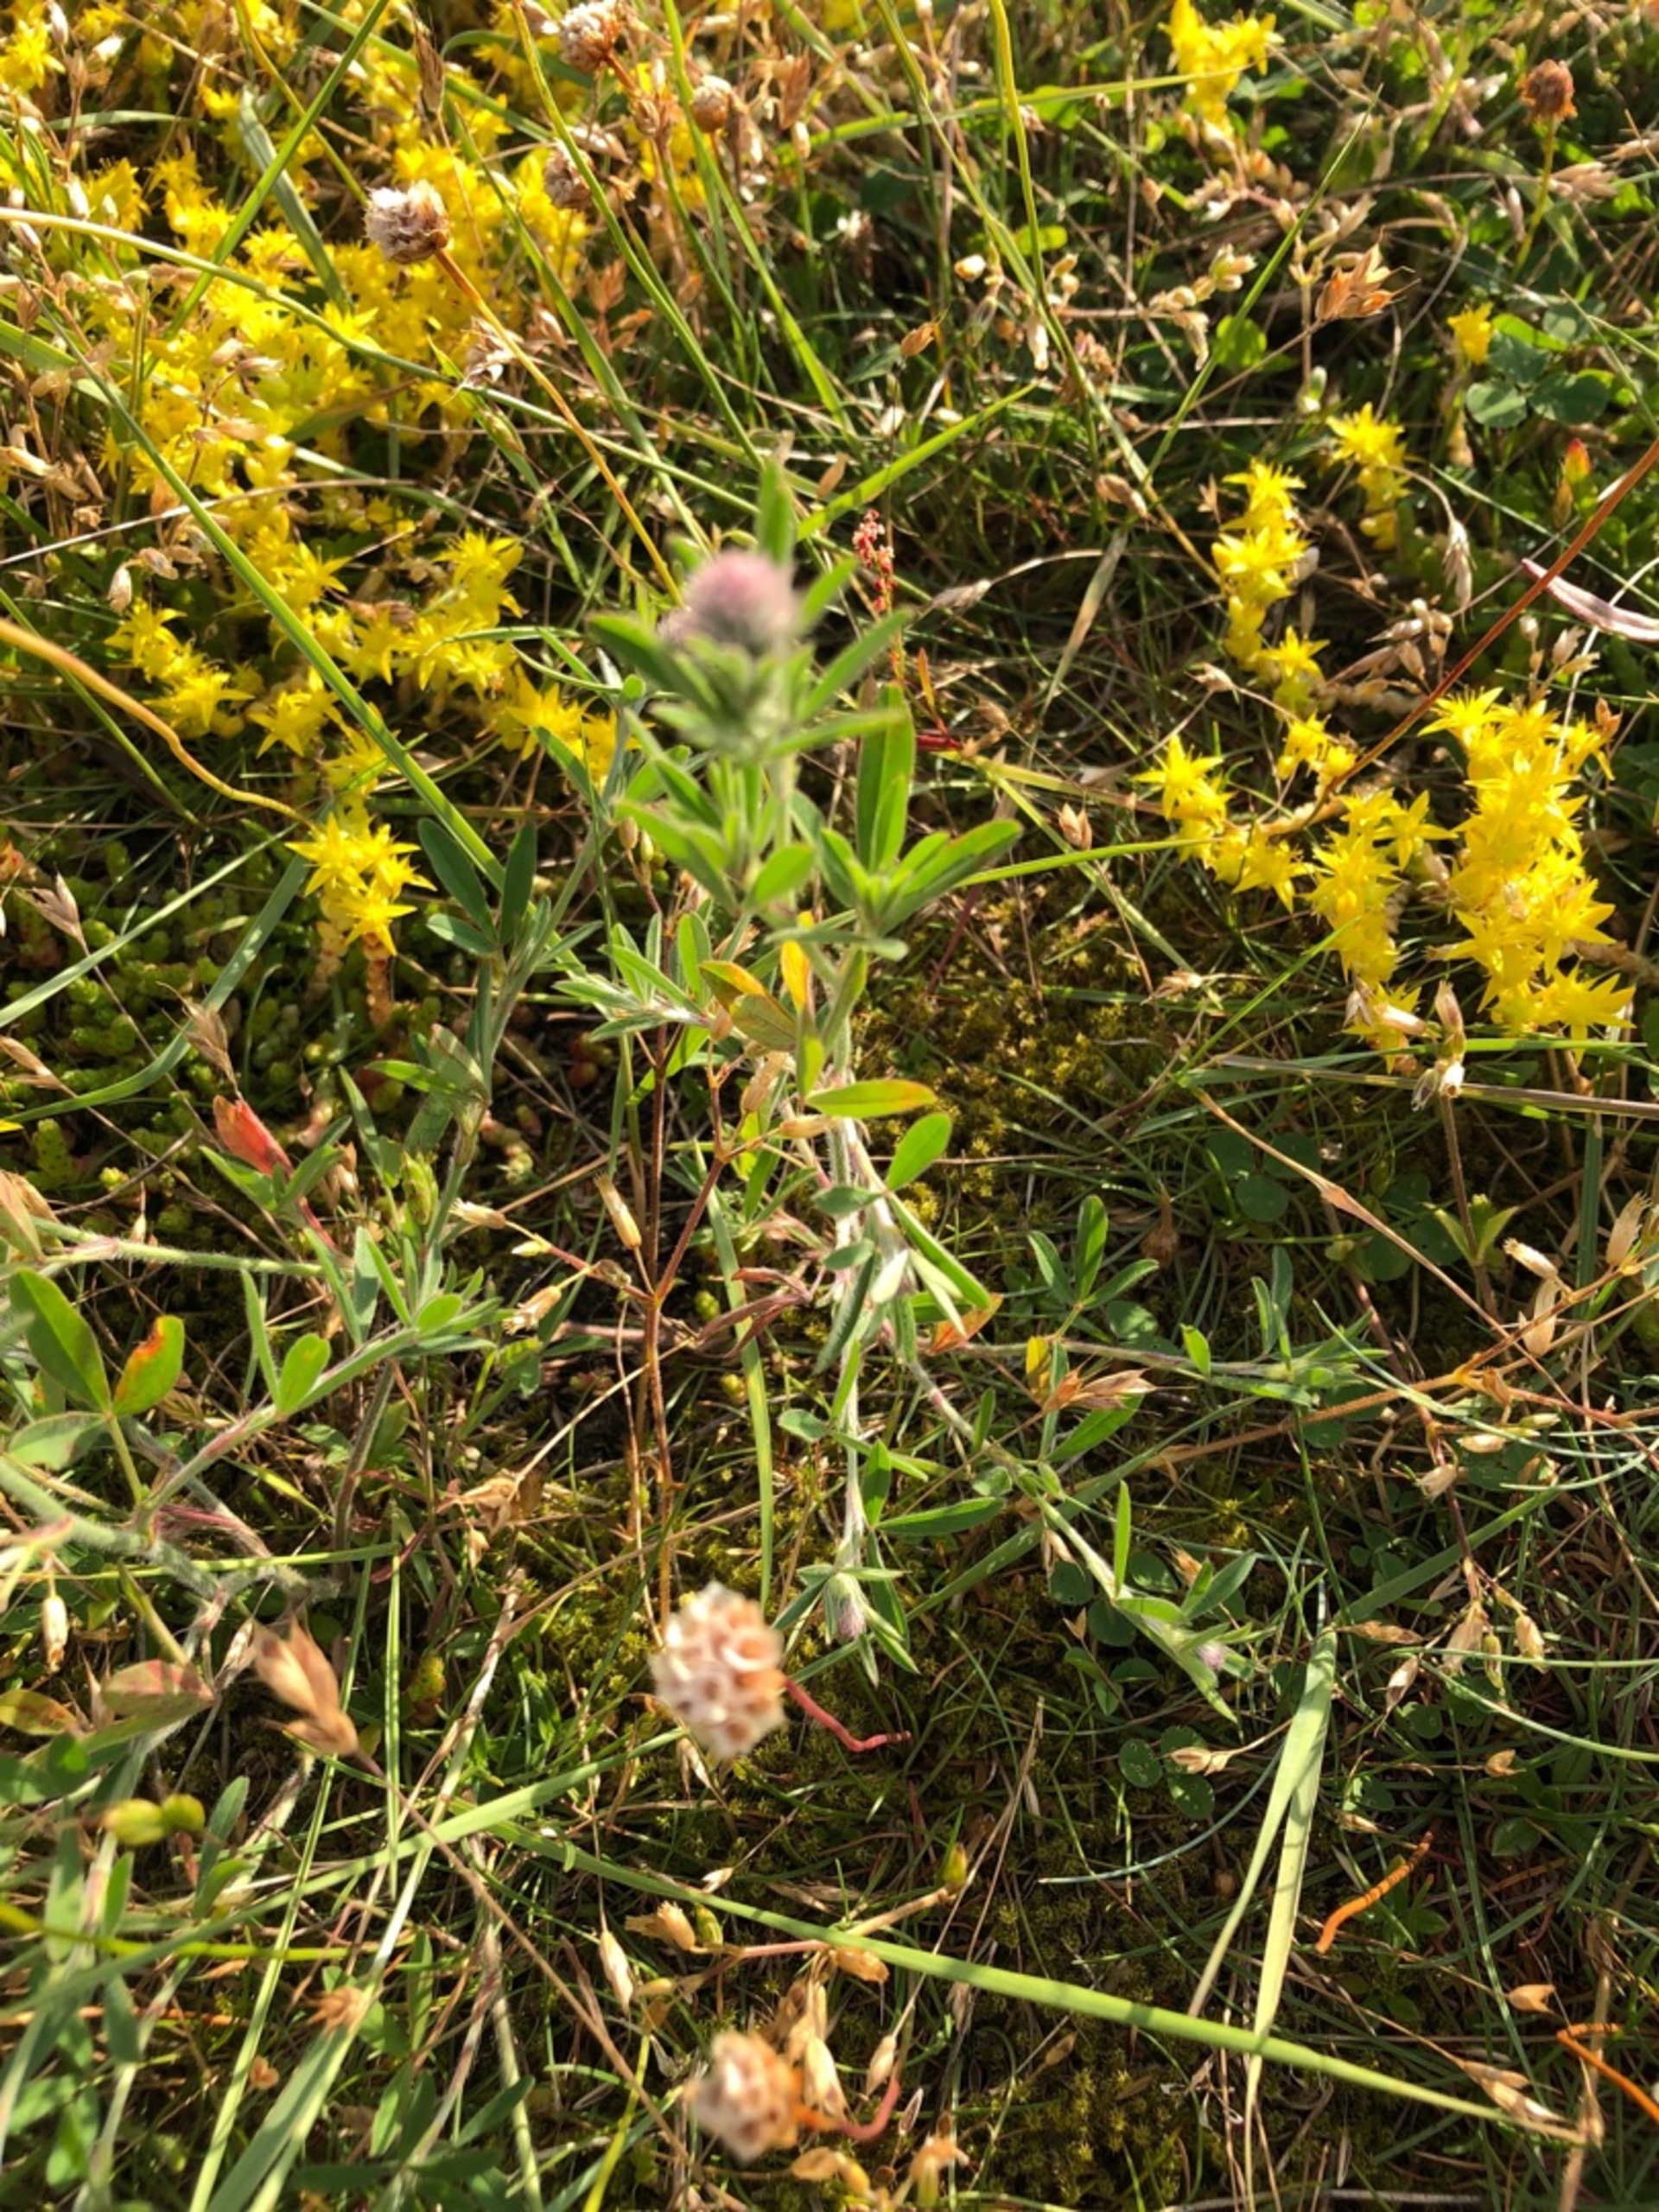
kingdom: Plantae
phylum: Tracheophyta
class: Magnoliopsida
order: Fabales
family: Fabaceae
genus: Trifolium
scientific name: Trifolium arvense
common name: Hare-kløver
